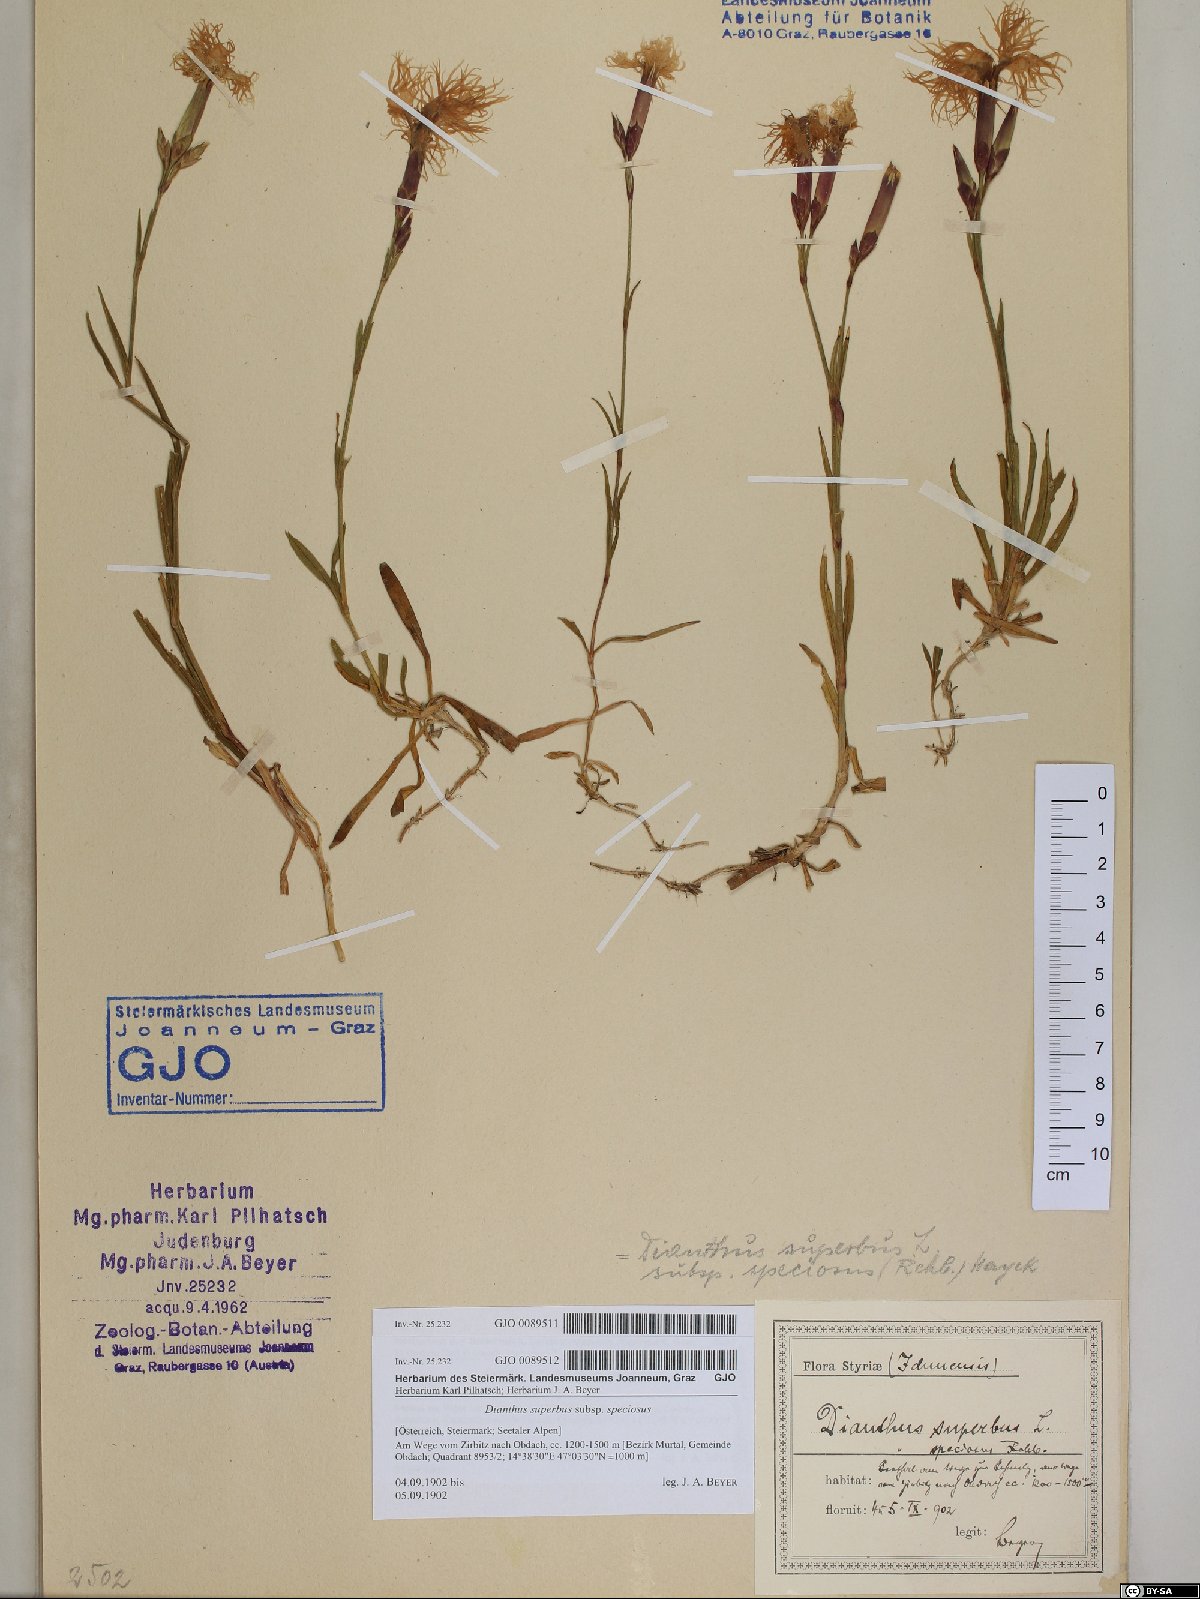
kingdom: Plantae
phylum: Tracheophyta
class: Magnoliopsida
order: Caryophyllales
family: Caryophyllaceae
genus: Dianthus
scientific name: Dianthus superbus
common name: Fringed pink
